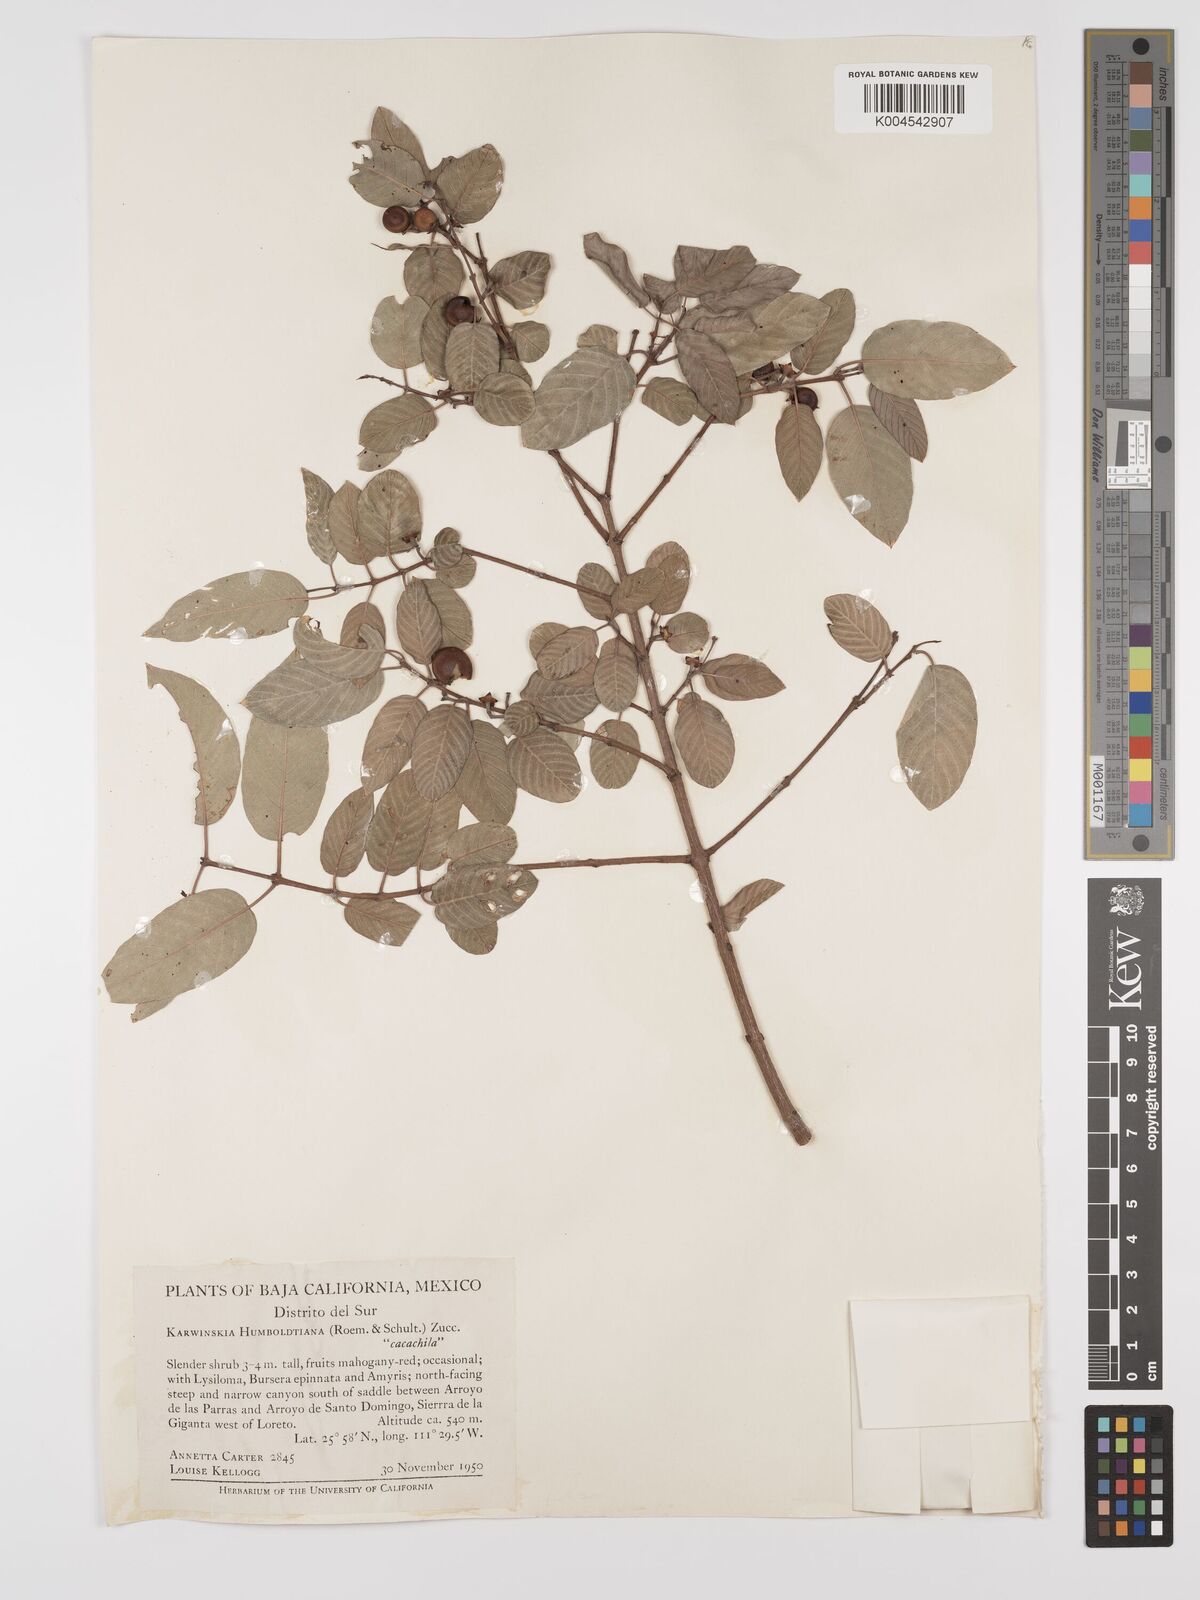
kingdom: Plantae
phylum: Tracheophyta
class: Magnoliopsida
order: Rosales
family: Rhamnaceae
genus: Karwinskia
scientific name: Karwinskia humboldtiana
